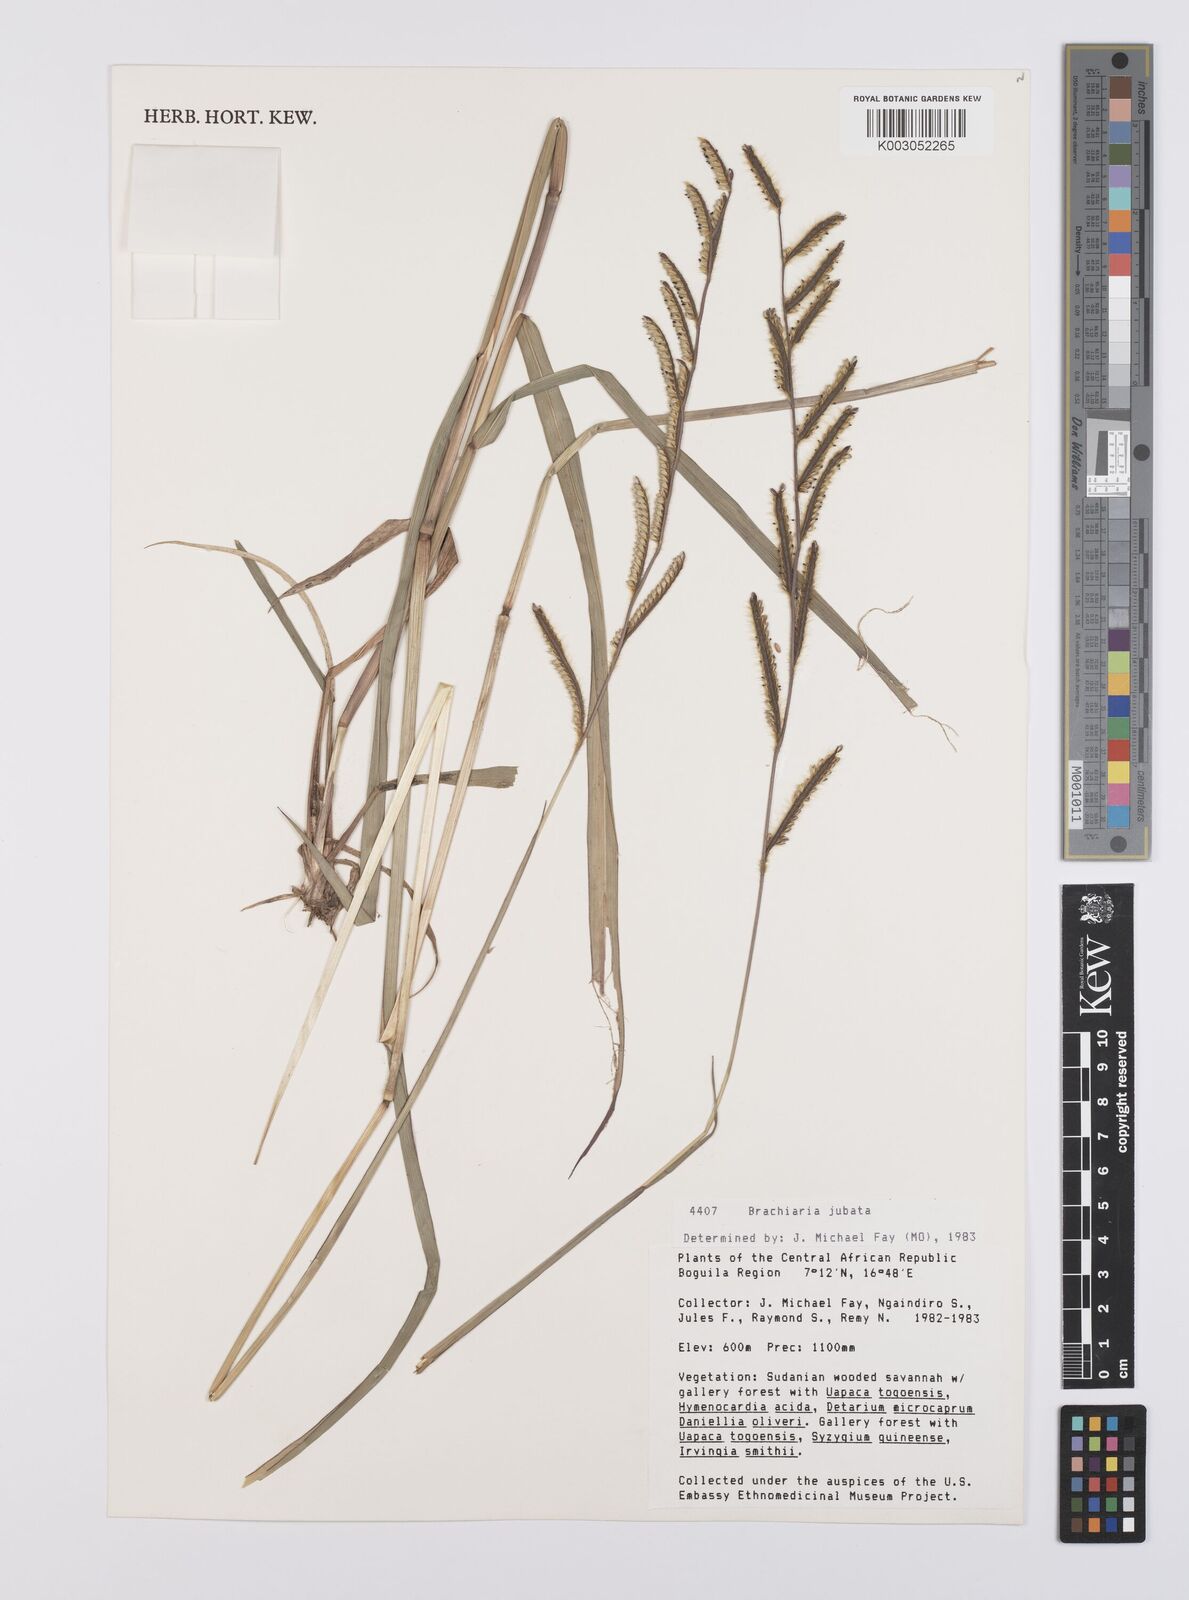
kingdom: Plantae
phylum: Tracheophyta
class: Liliopsida
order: Poales
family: Poaceae
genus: Urochloa
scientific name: Urochloa jubata
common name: Buffalograss
